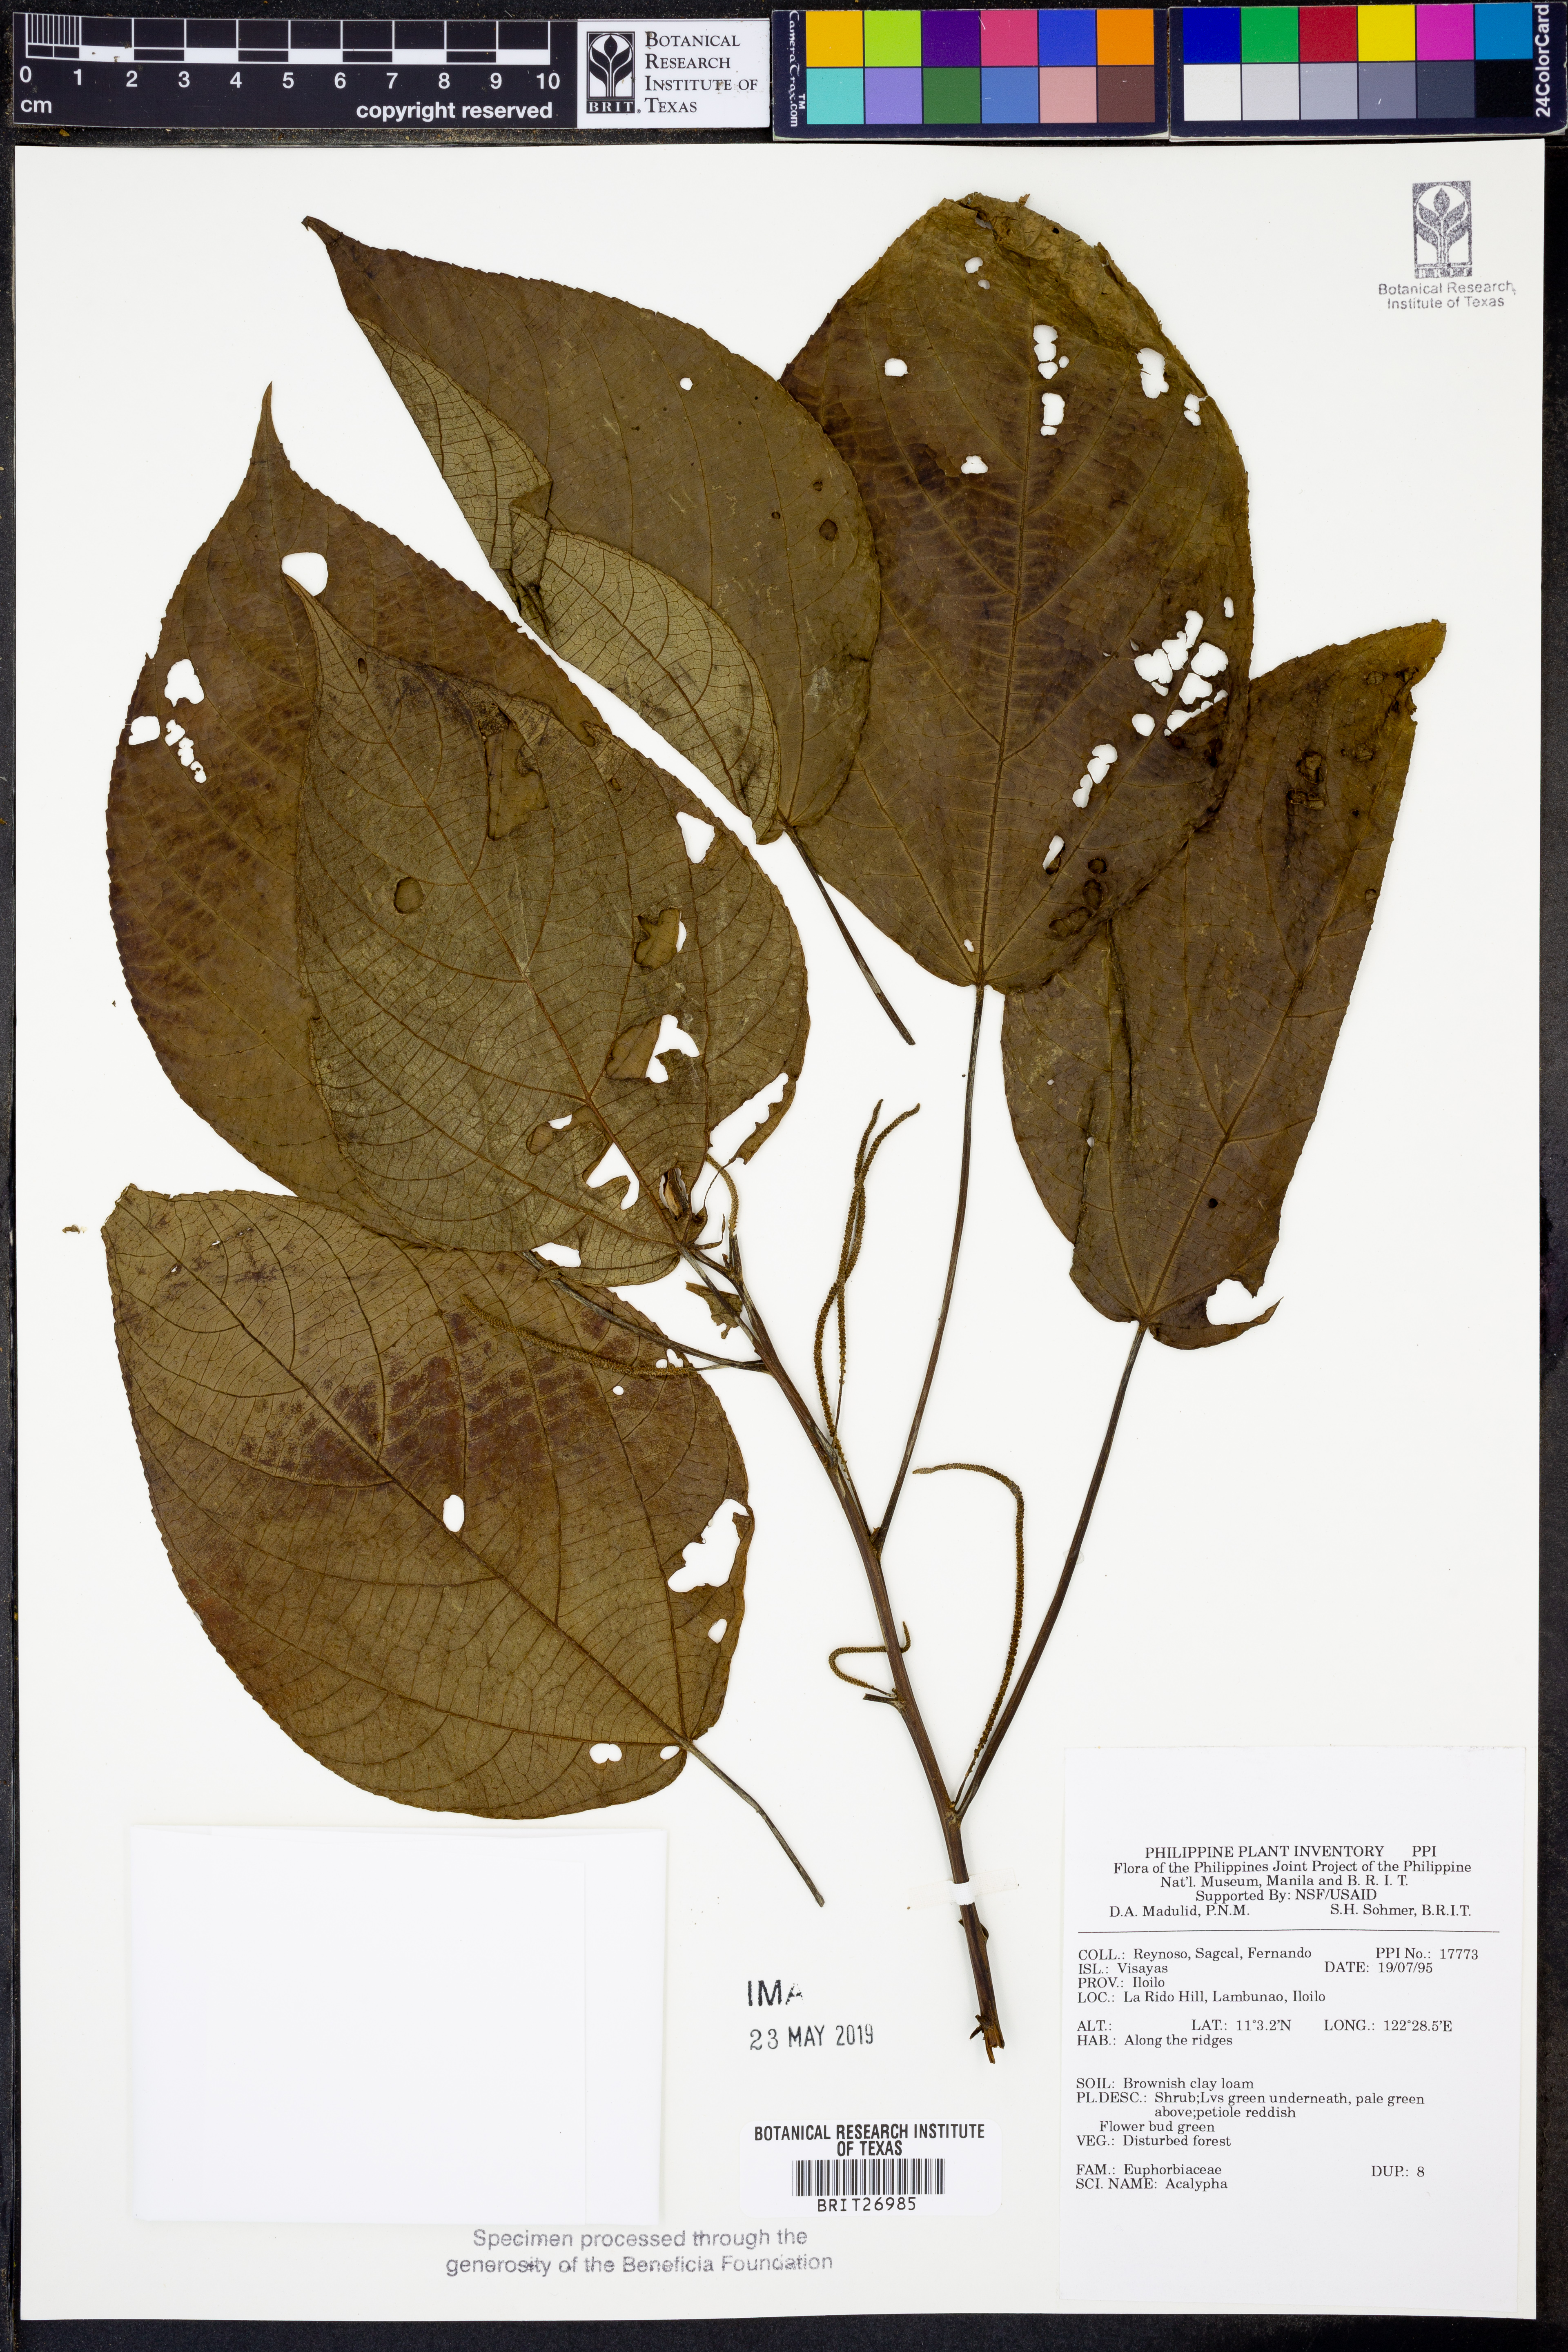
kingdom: Plantae
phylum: Tracheophyta
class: Magnoliopsida
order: Malpighiales
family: Euphorbiaceae
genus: Acalypha
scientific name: Acalypha
